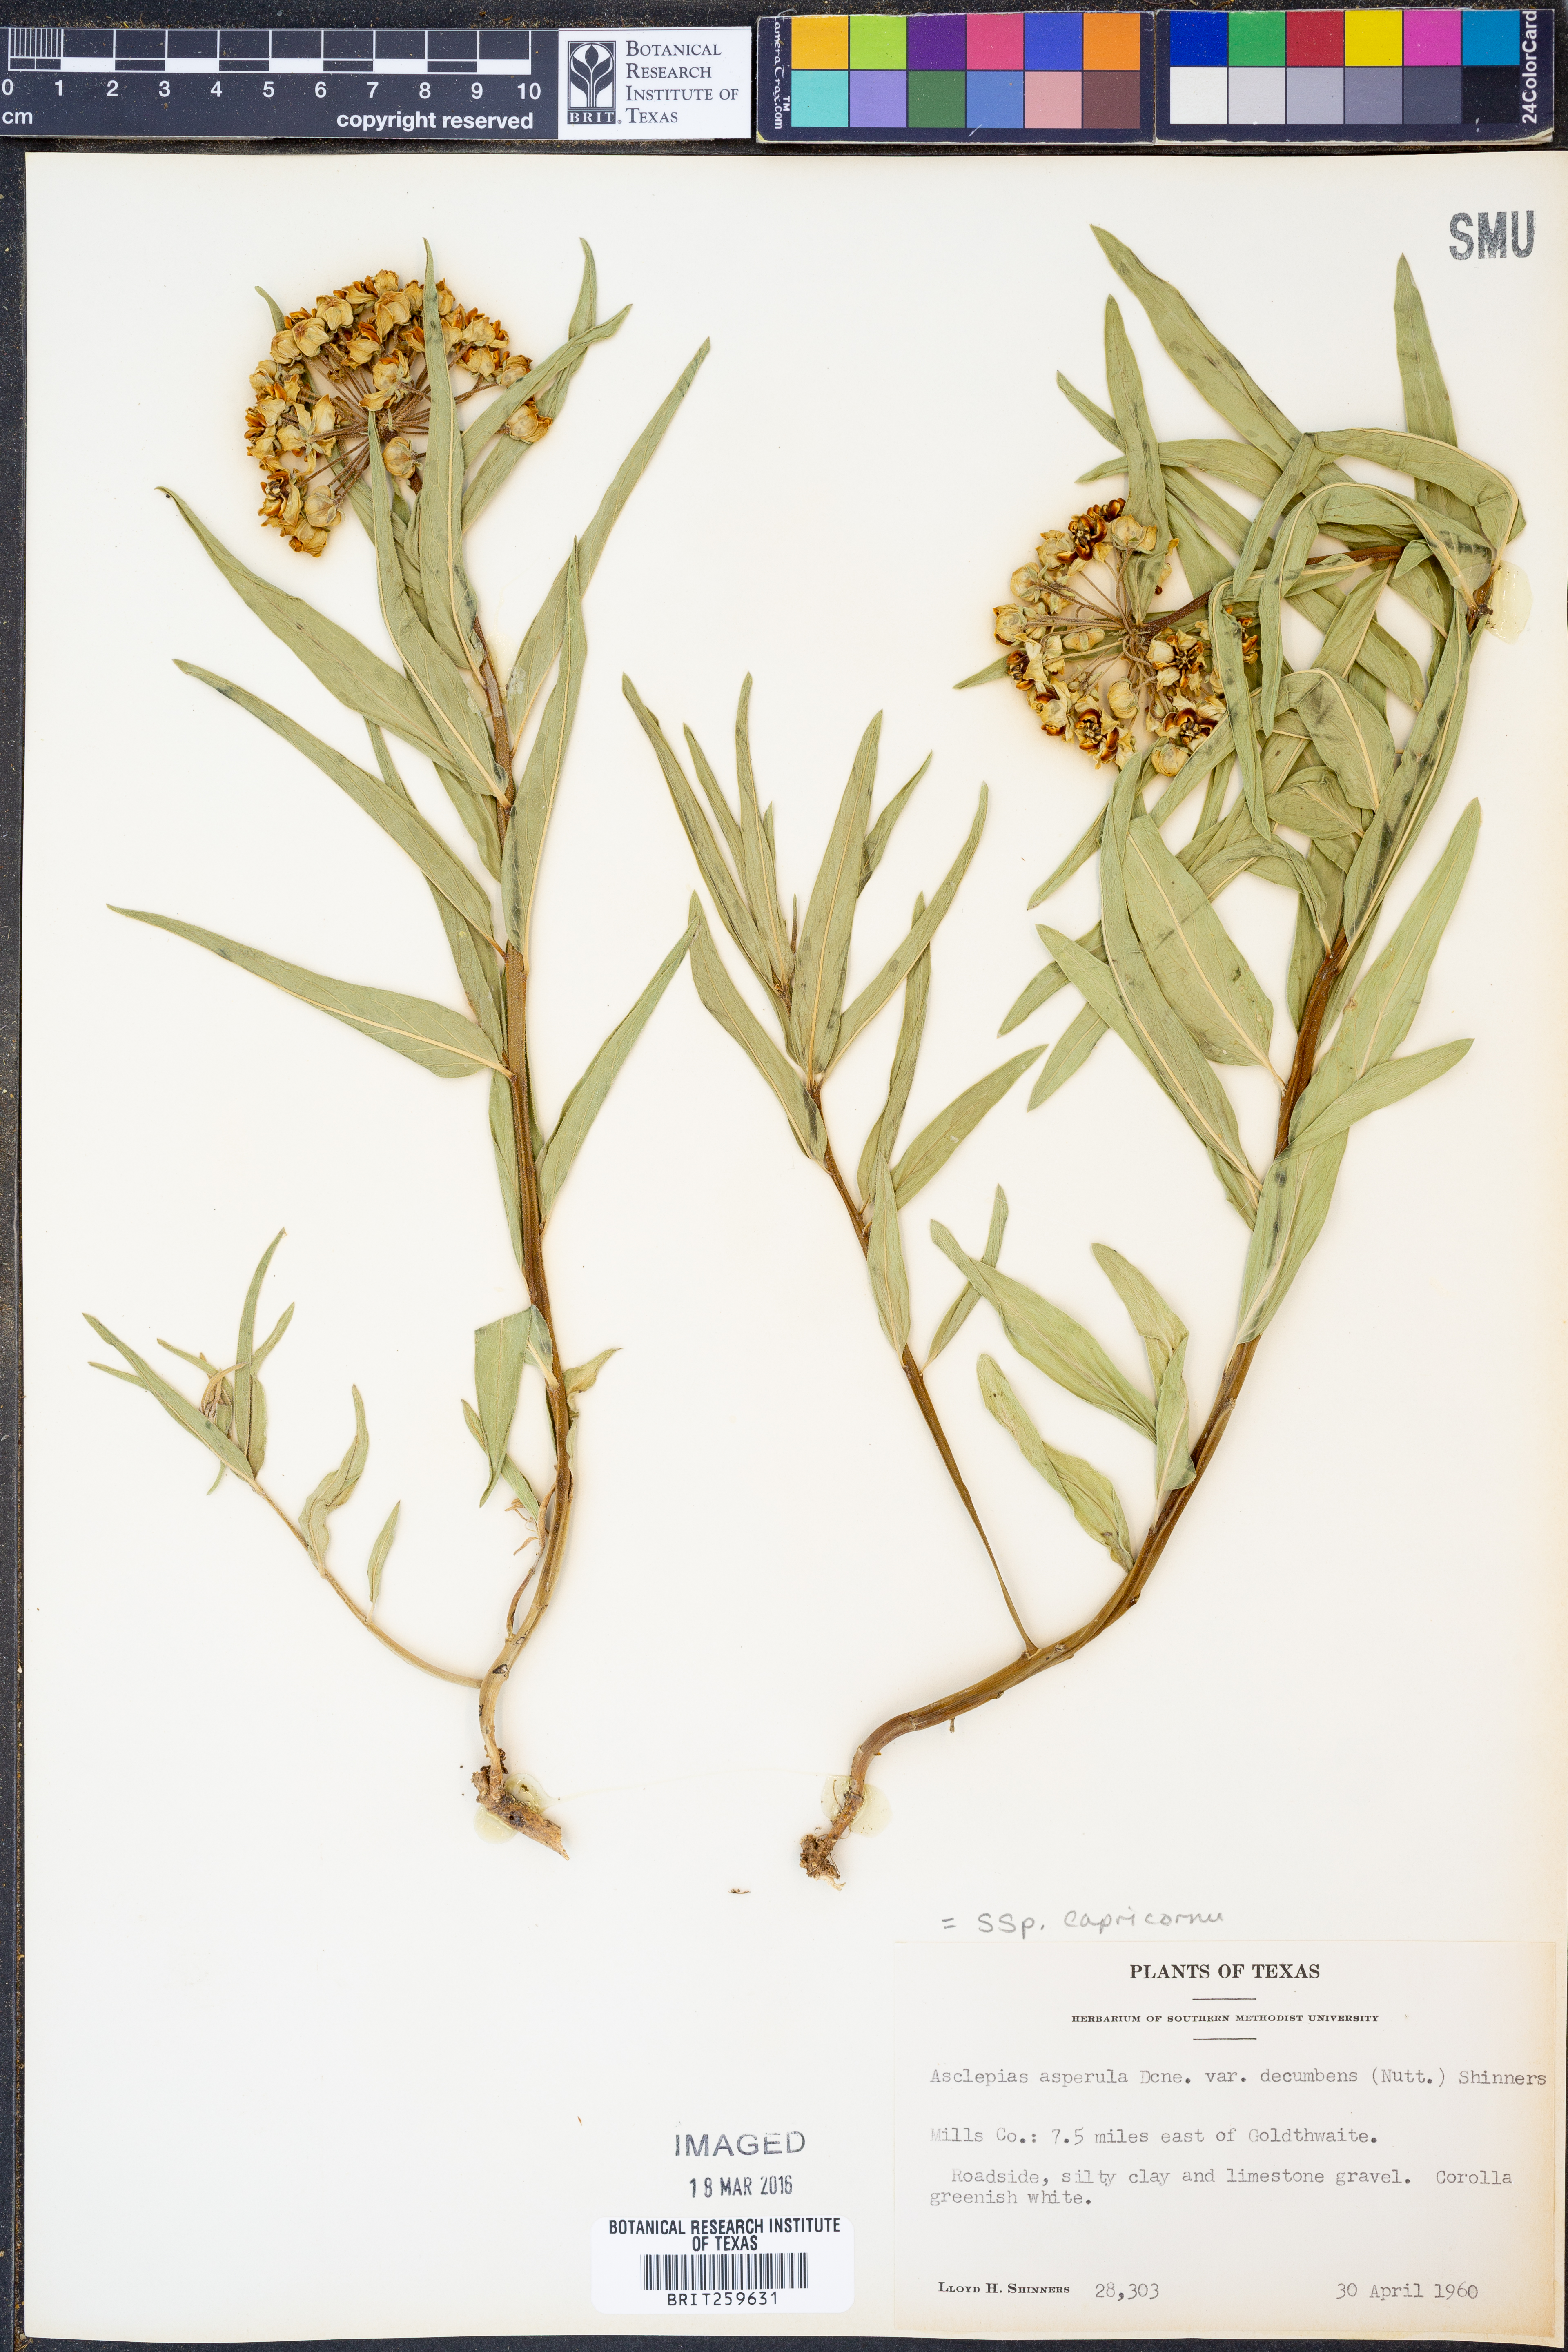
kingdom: Plantae
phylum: Tracheophyta
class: Magnoliopsida
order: Gentianales
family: Apocynaceae
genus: Asclepias
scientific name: Asclepias asperula
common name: Antelope horns
